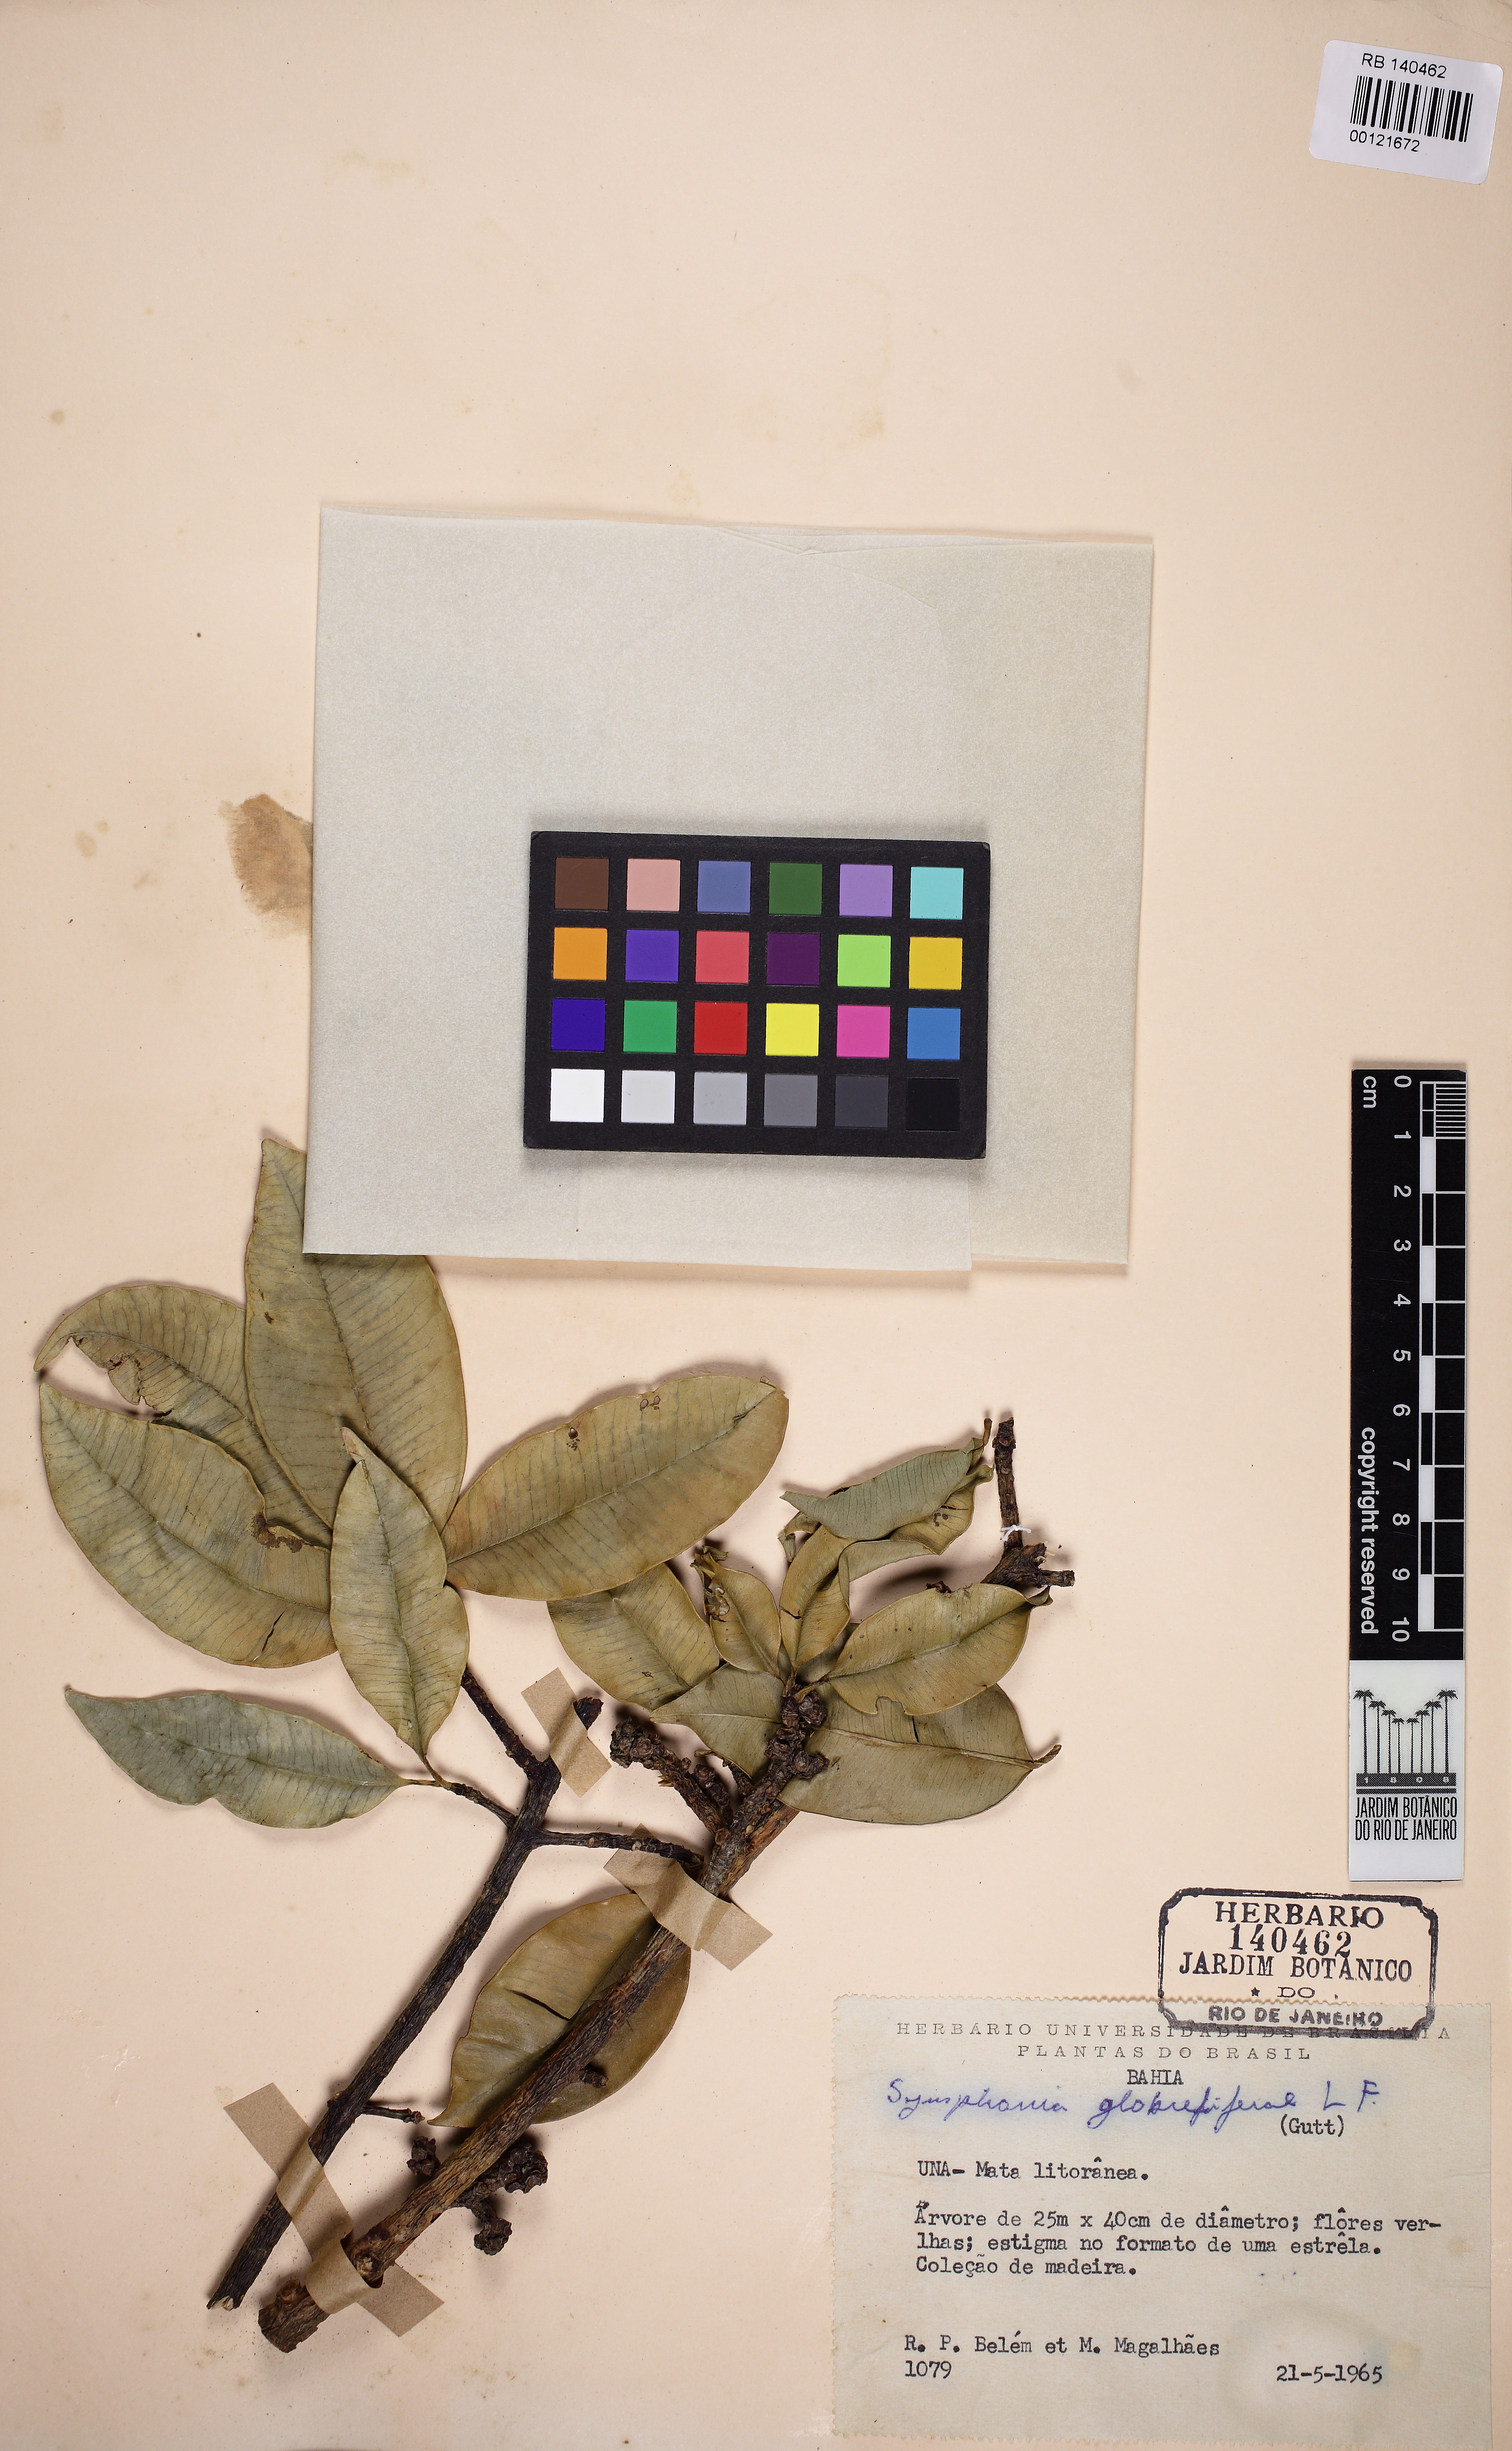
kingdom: Plantae
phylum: Tracheophyta
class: Magnoliopsida
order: Malpighiales
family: Clusiaceae
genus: Symphonia
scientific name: Symphonia globulifera
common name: Boarwood
